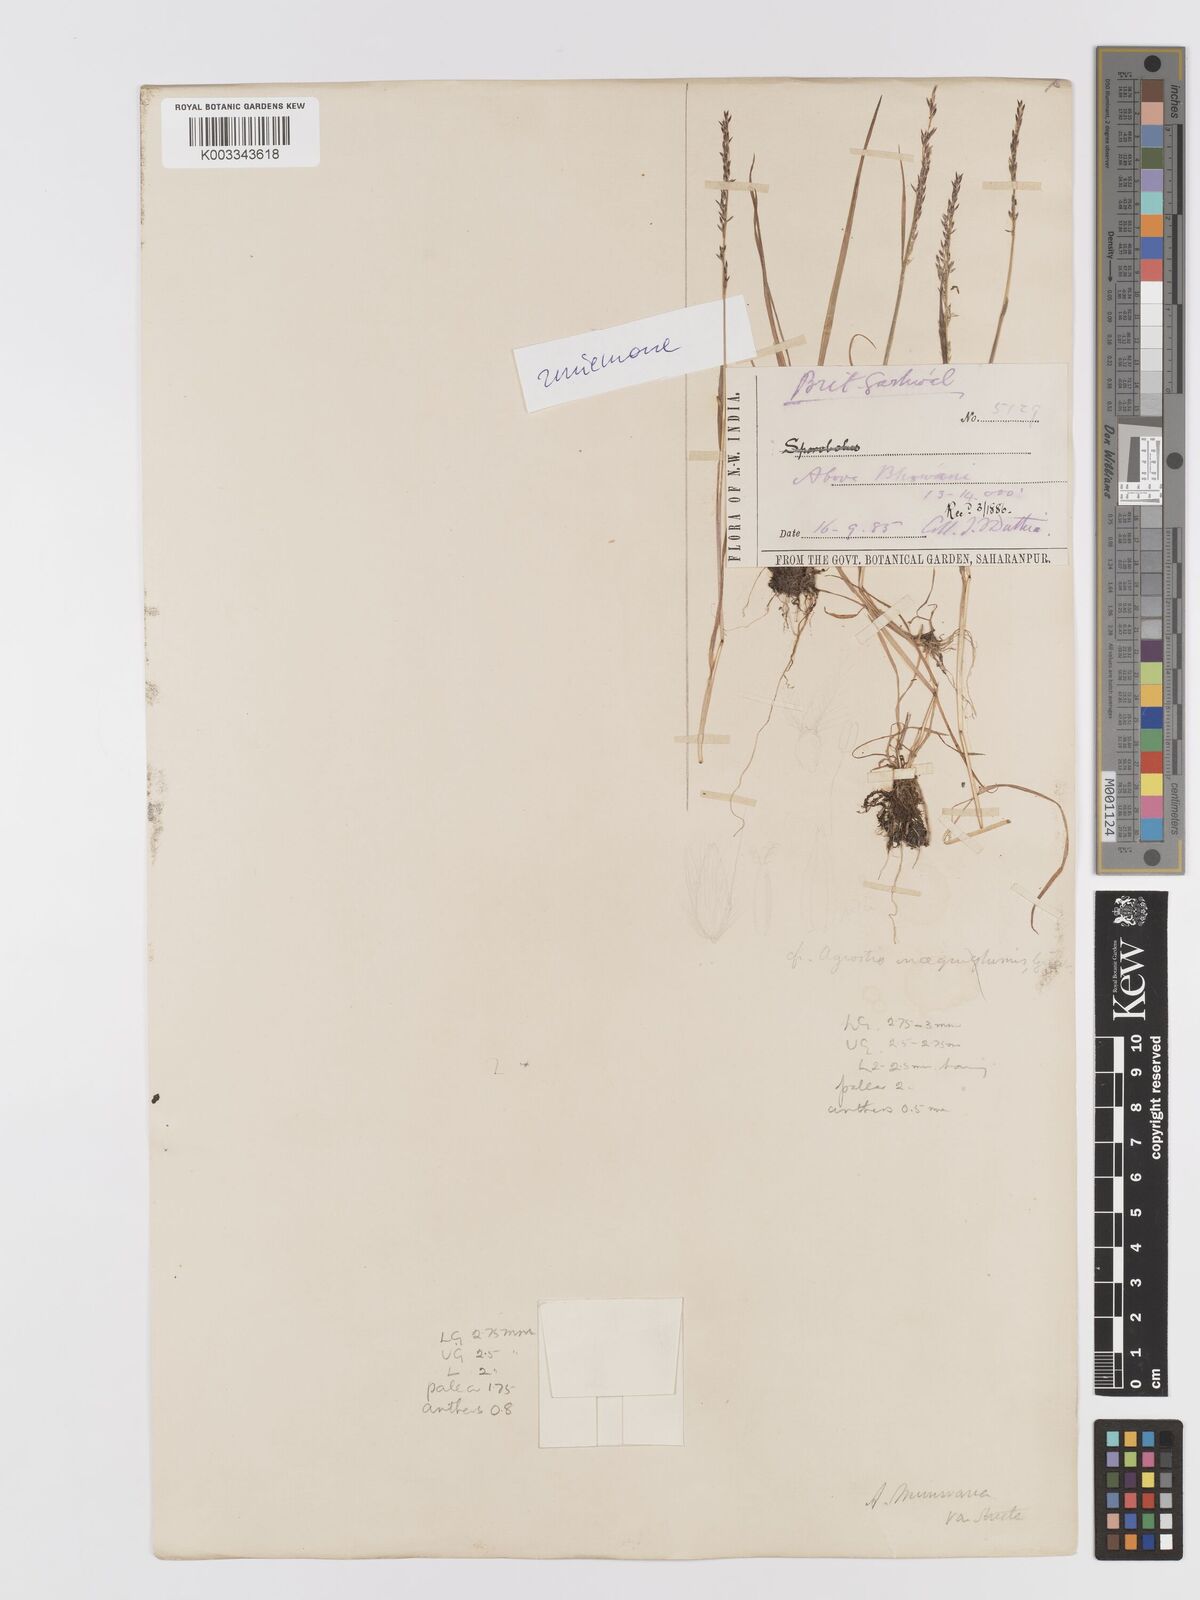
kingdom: Plantae
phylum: Tracheophyta
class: Liliopsida
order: Poales
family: Poaceae
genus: Agrostis
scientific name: Agrostis munroana
